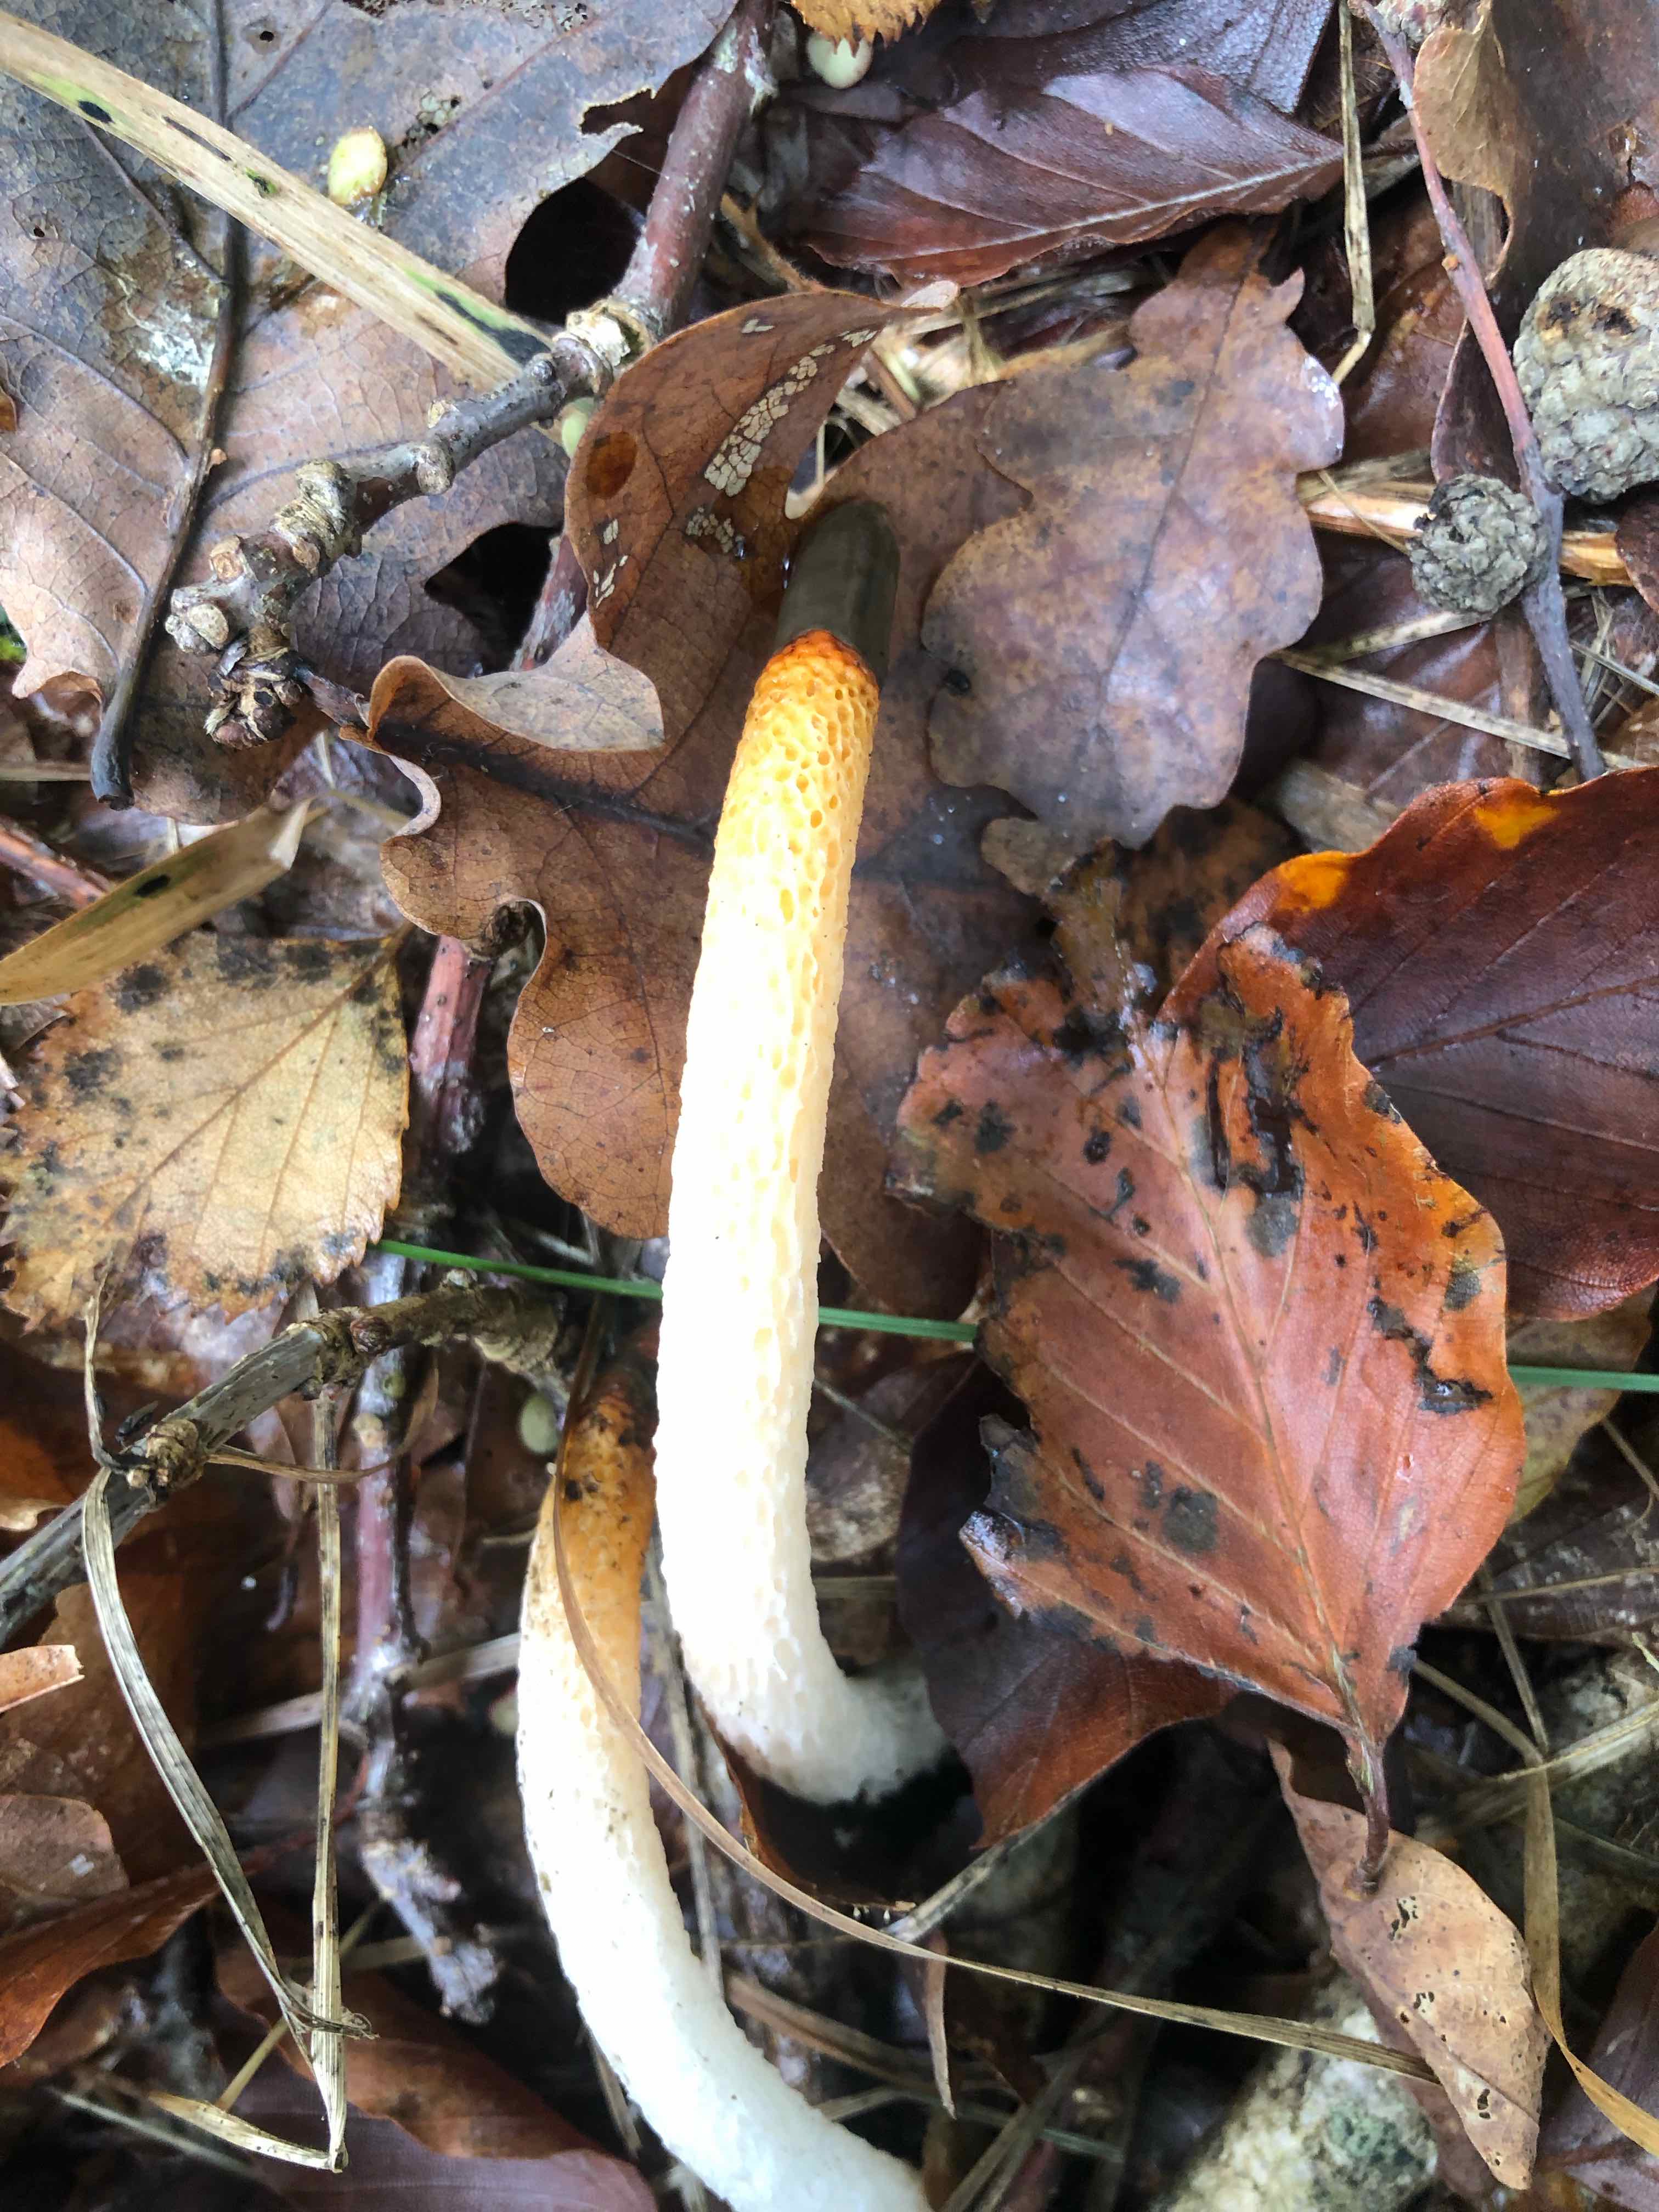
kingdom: Fungi
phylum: Basidiomycota
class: Agaricomycetes
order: Phallales
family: Phallaceae
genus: Mutinus
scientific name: Mutinus caninus
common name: hunde-stinksvamp
